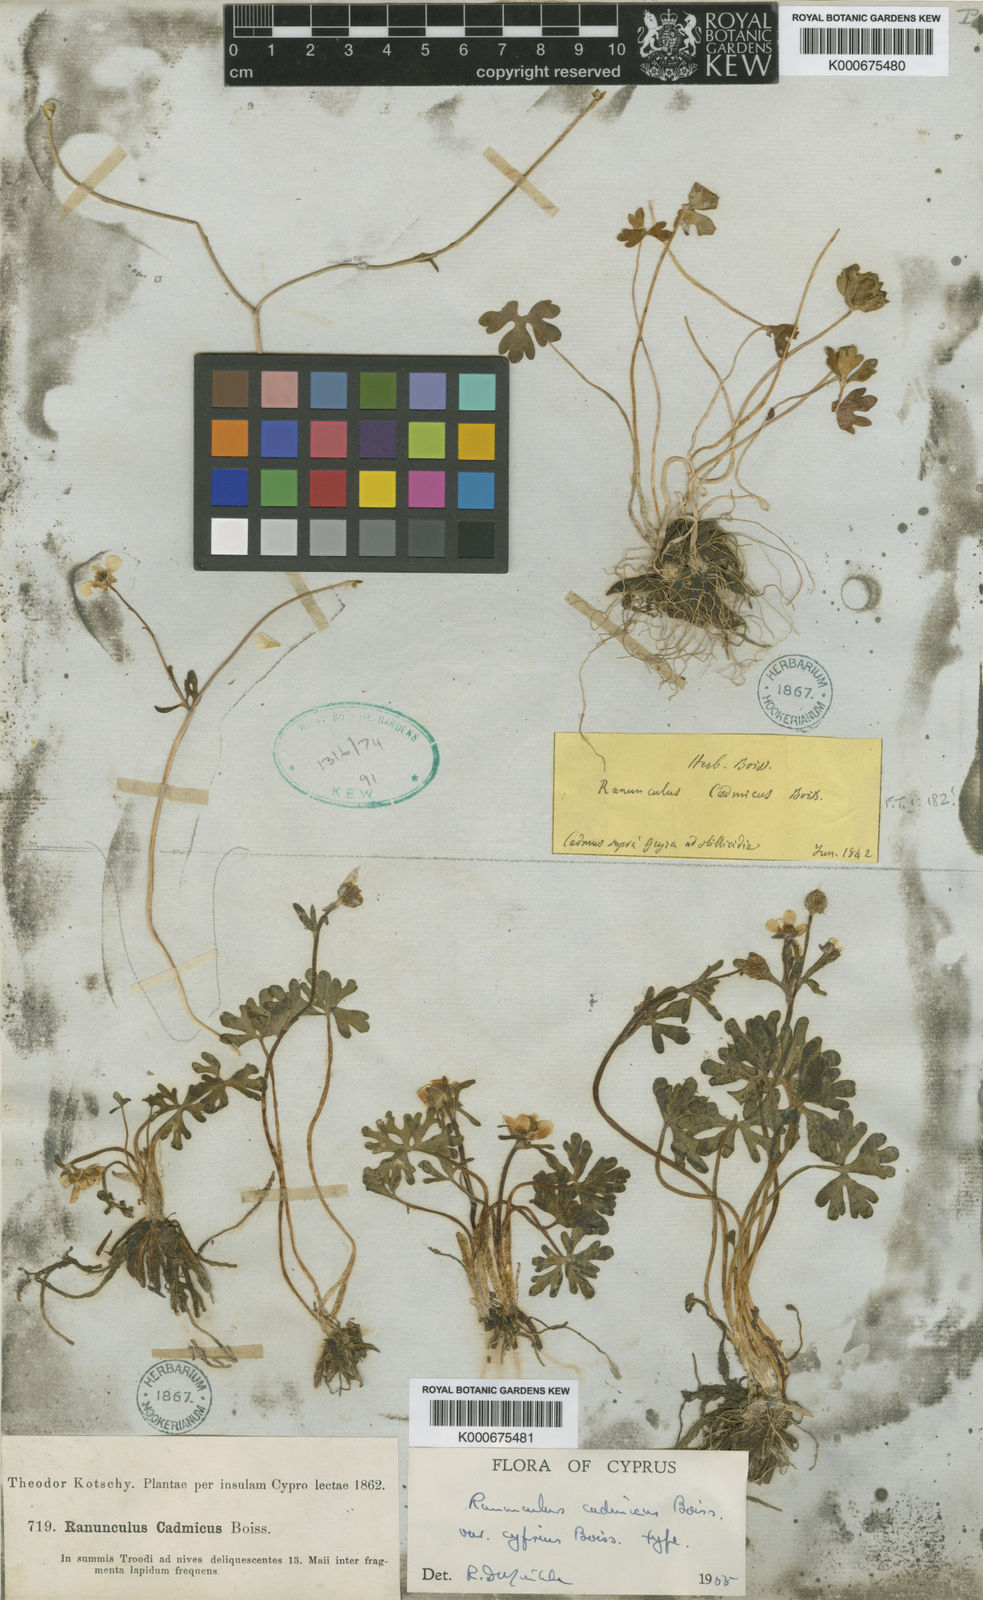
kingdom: Plantae
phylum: Tracheophyta
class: Magnoliopsida
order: Ranunculales
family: Ranunculaceae
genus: Ranunculus
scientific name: Ranunculus cadmicus
